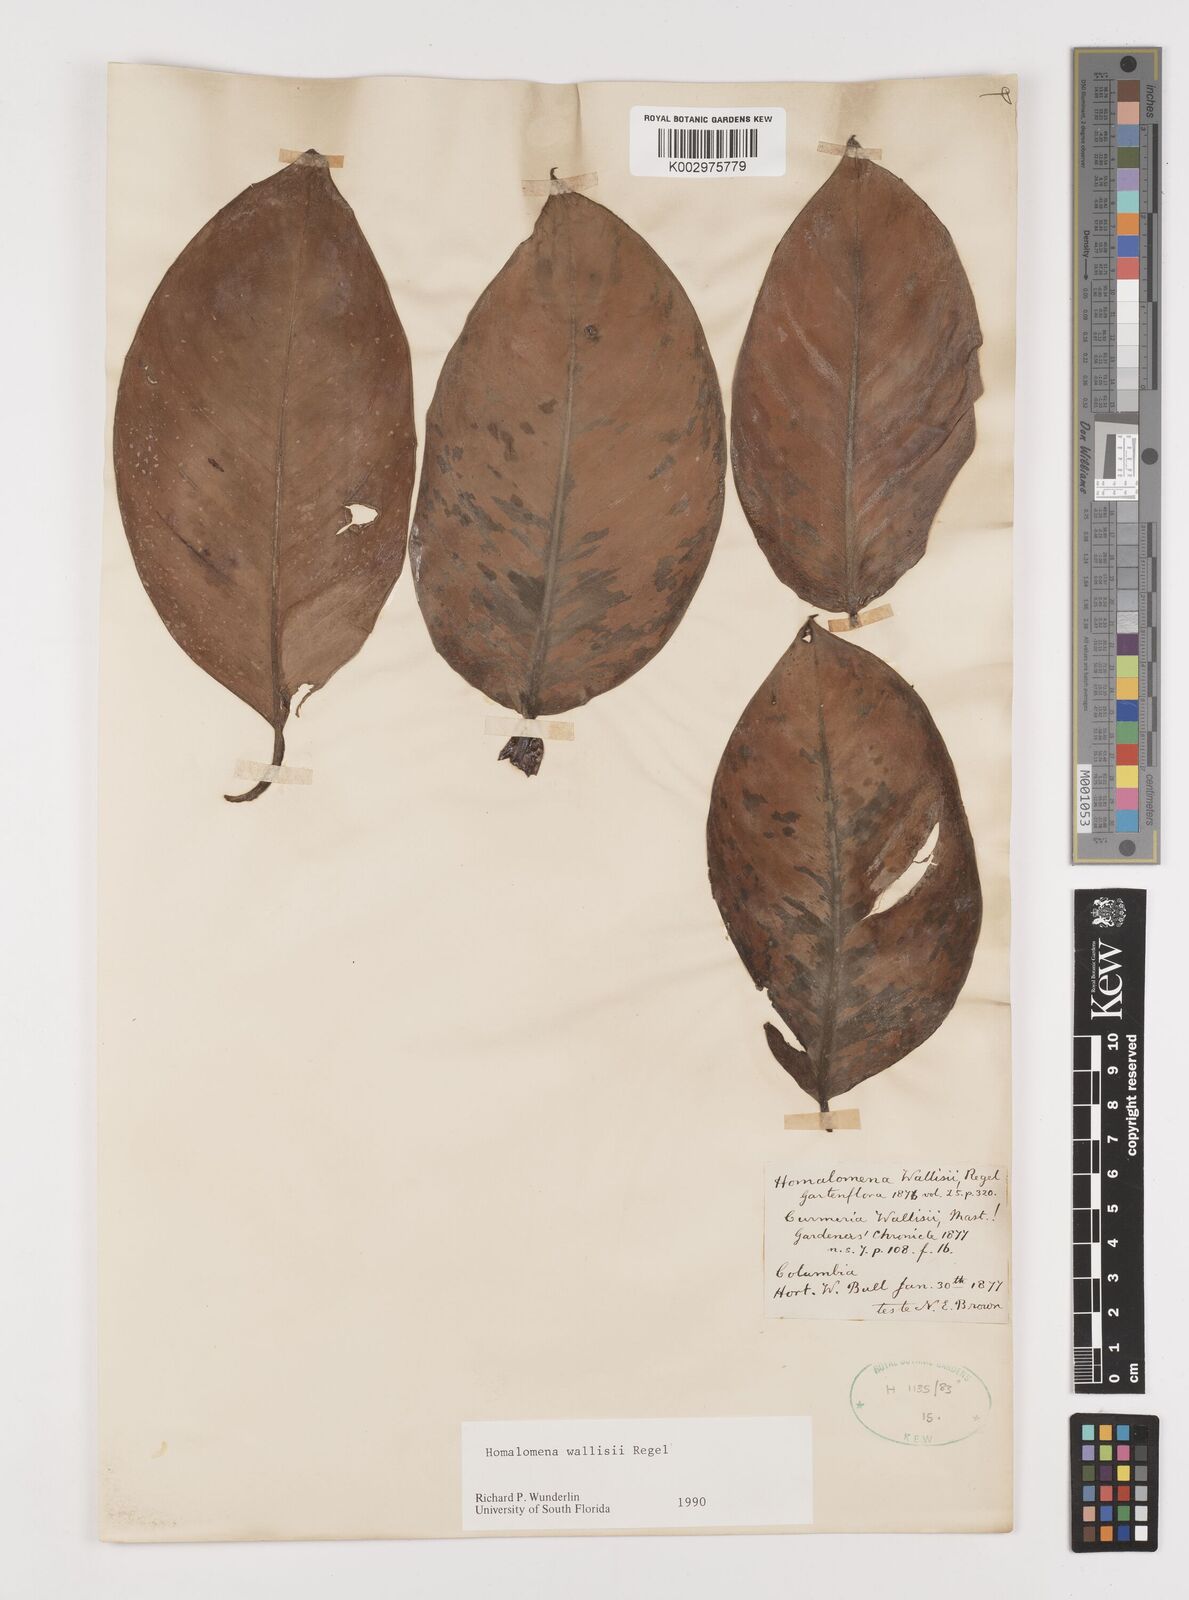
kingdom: Plantae
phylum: Tracheophyta
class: Liliopsida
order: Alismatales
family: Araceae
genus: Adelonema
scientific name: Adelonema wallisii
